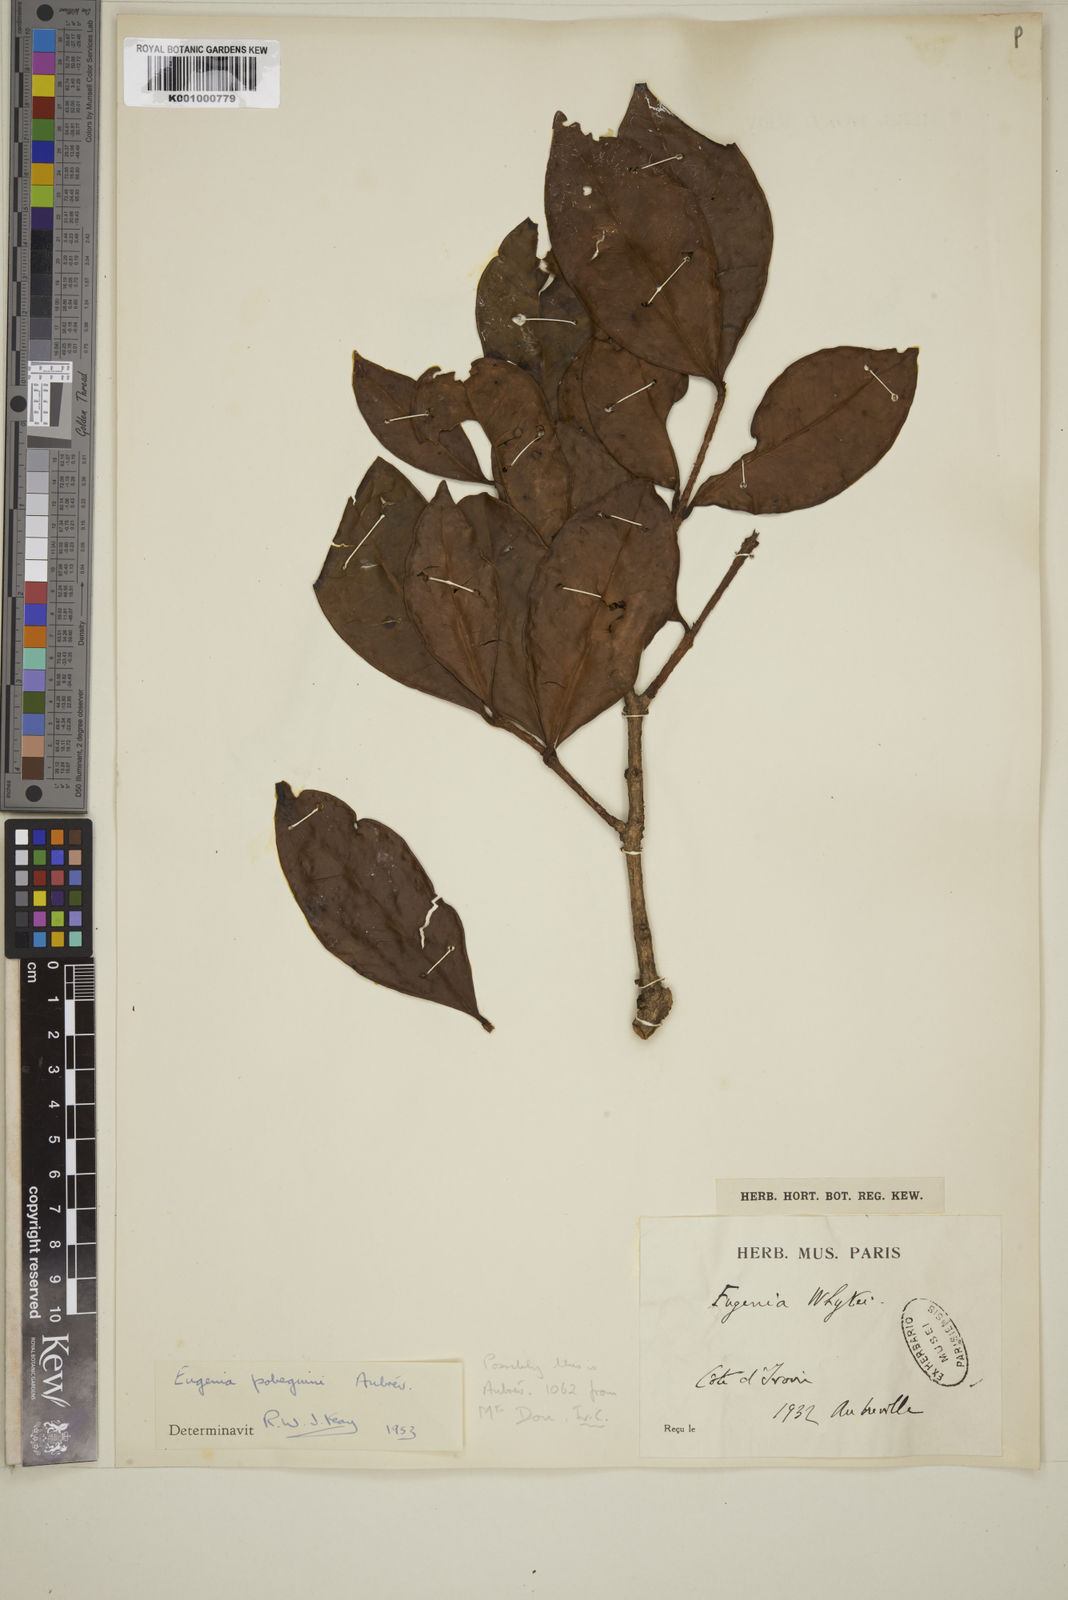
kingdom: Plantae
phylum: Tracheophyta
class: Magnoliopsida
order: Myrtales
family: Myrtaceae
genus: Eugenia
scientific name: Eugenia
